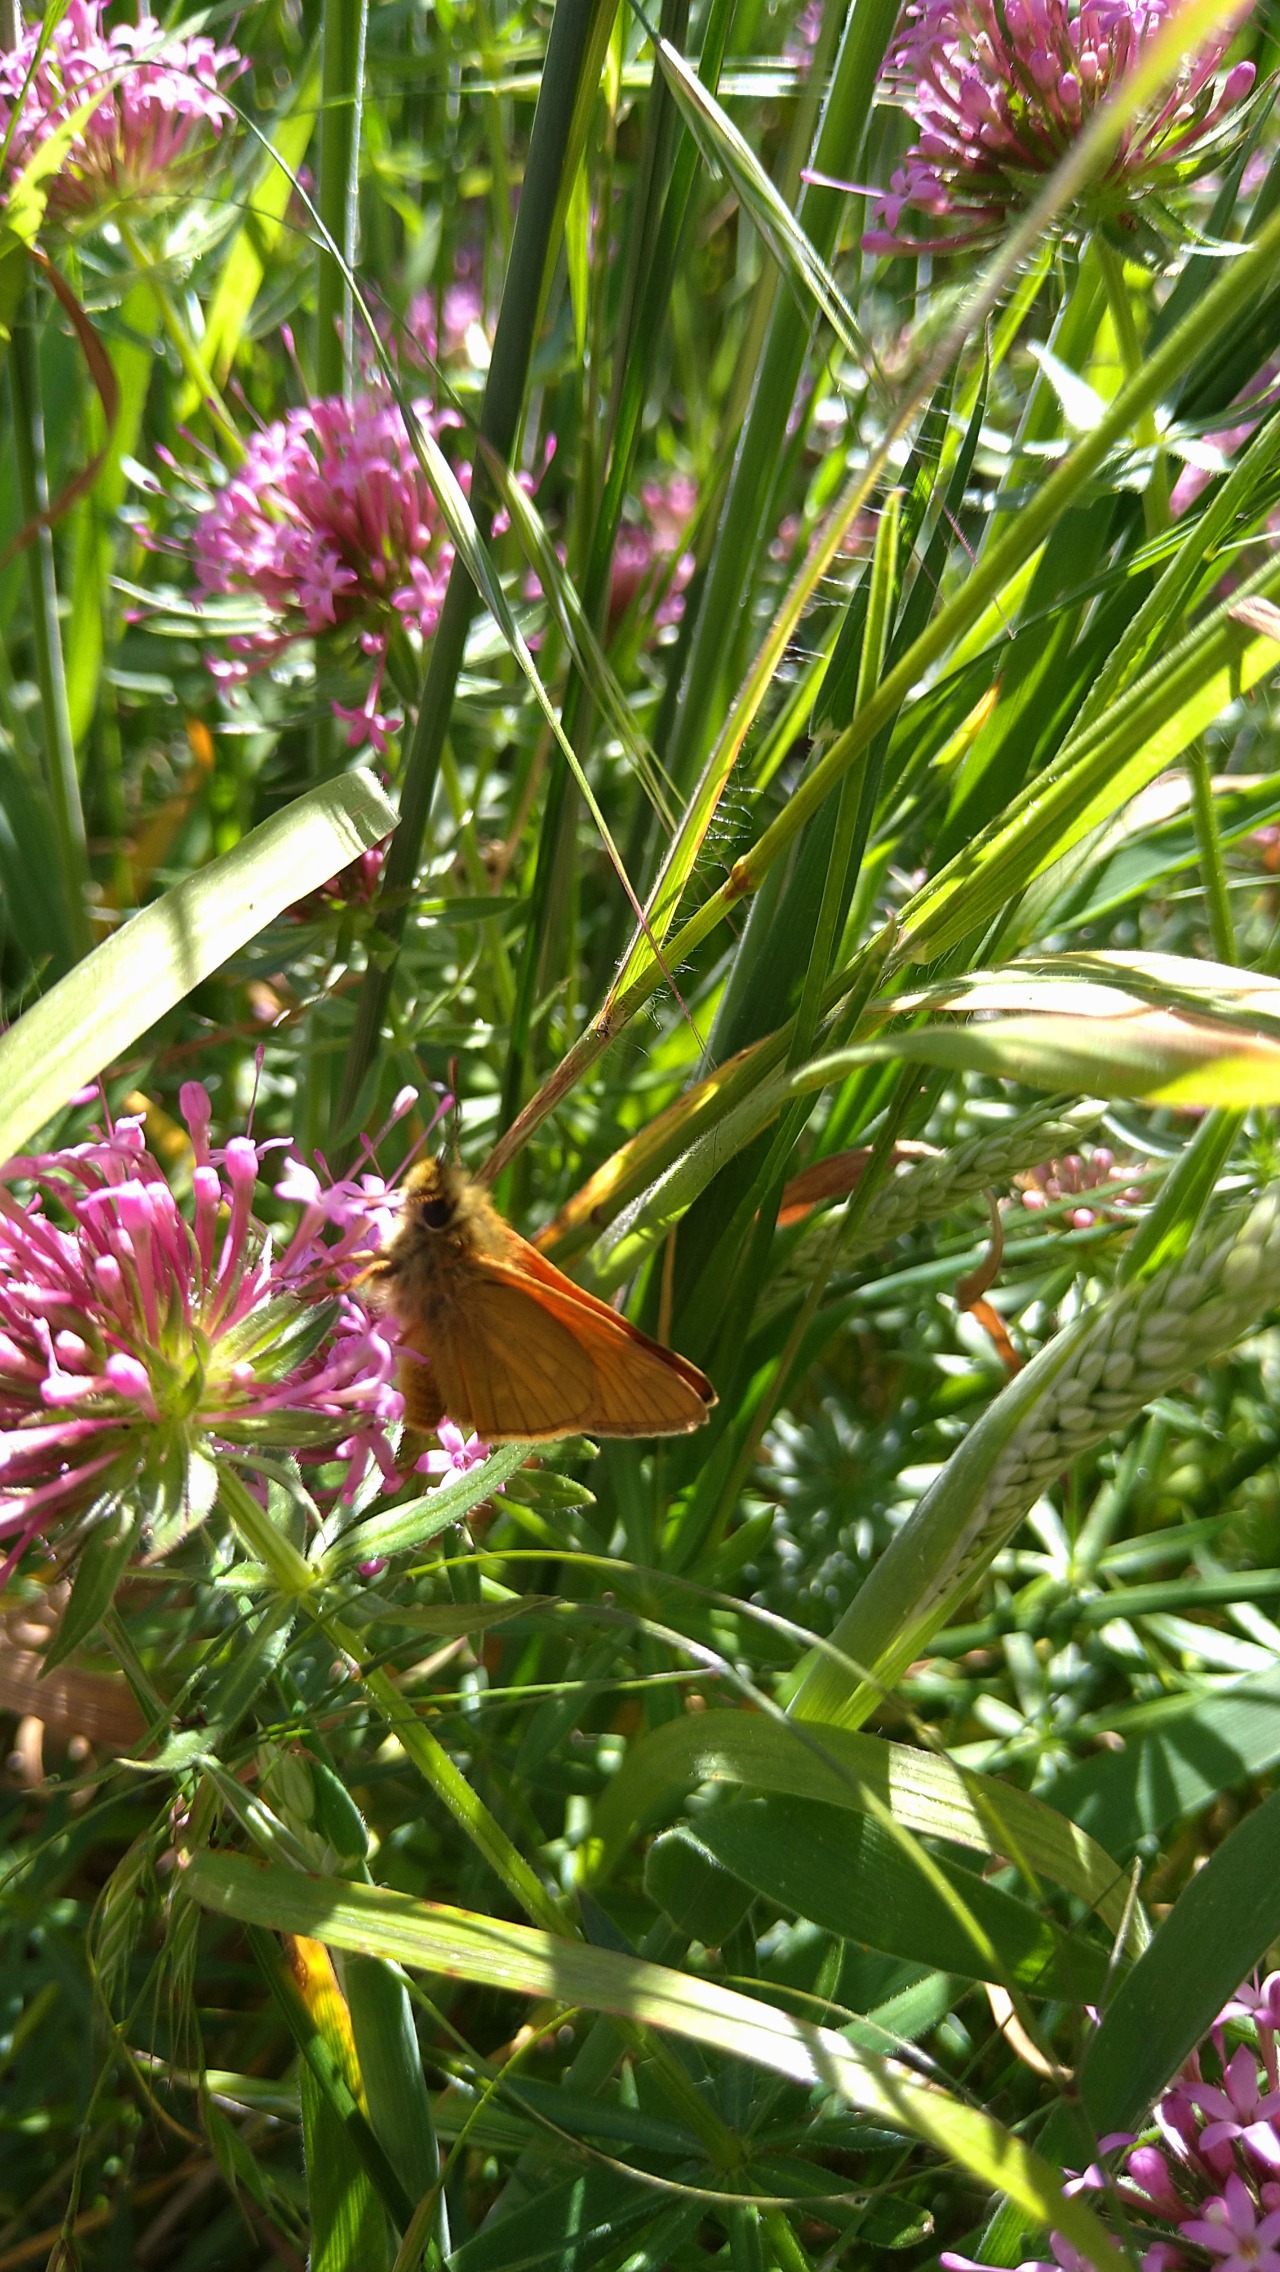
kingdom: Animalia
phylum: Arthropoda
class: Insecta
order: Lepidoptera
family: Hesperiidae
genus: Ochlodes
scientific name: Ochlodes venata
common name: Stor bredpande
